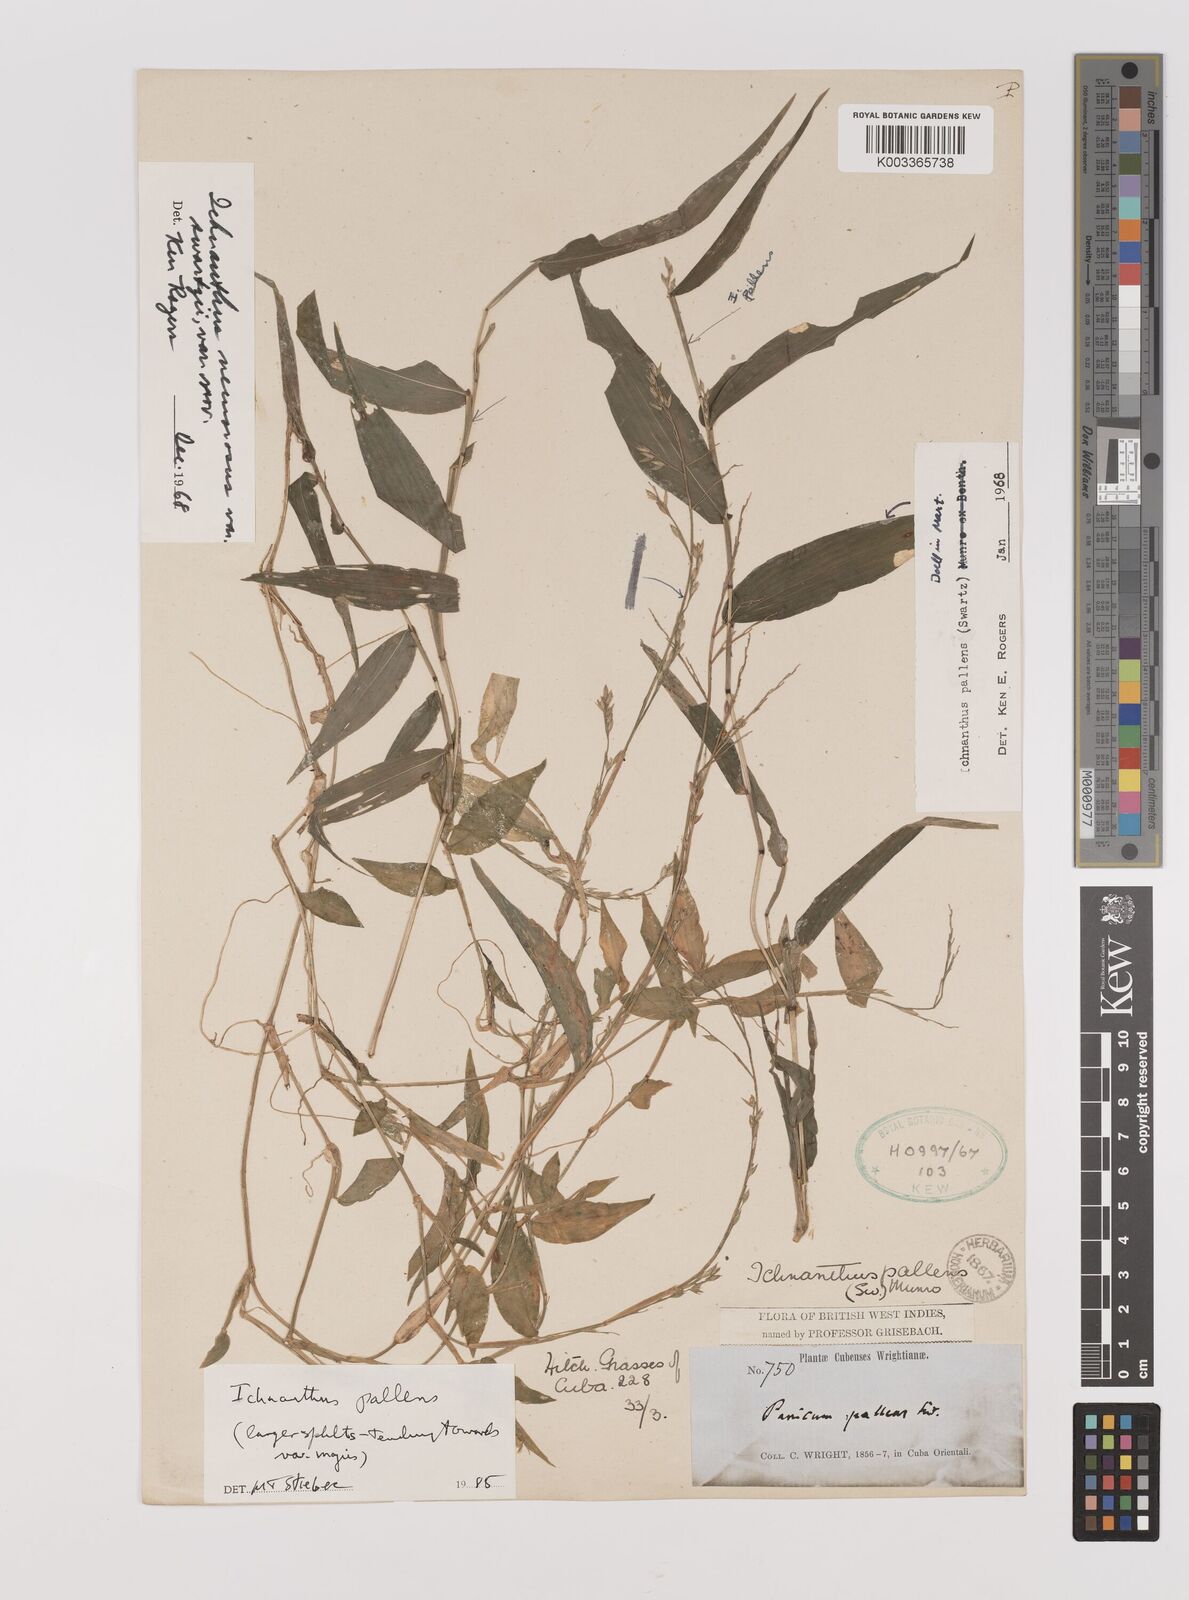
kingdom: Plantae
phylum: Tracheophyta
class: Liliopsida
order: Poales
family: Poaceae
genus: Ichnanthus
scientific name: Ichnanthus pallens
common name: Water grass
